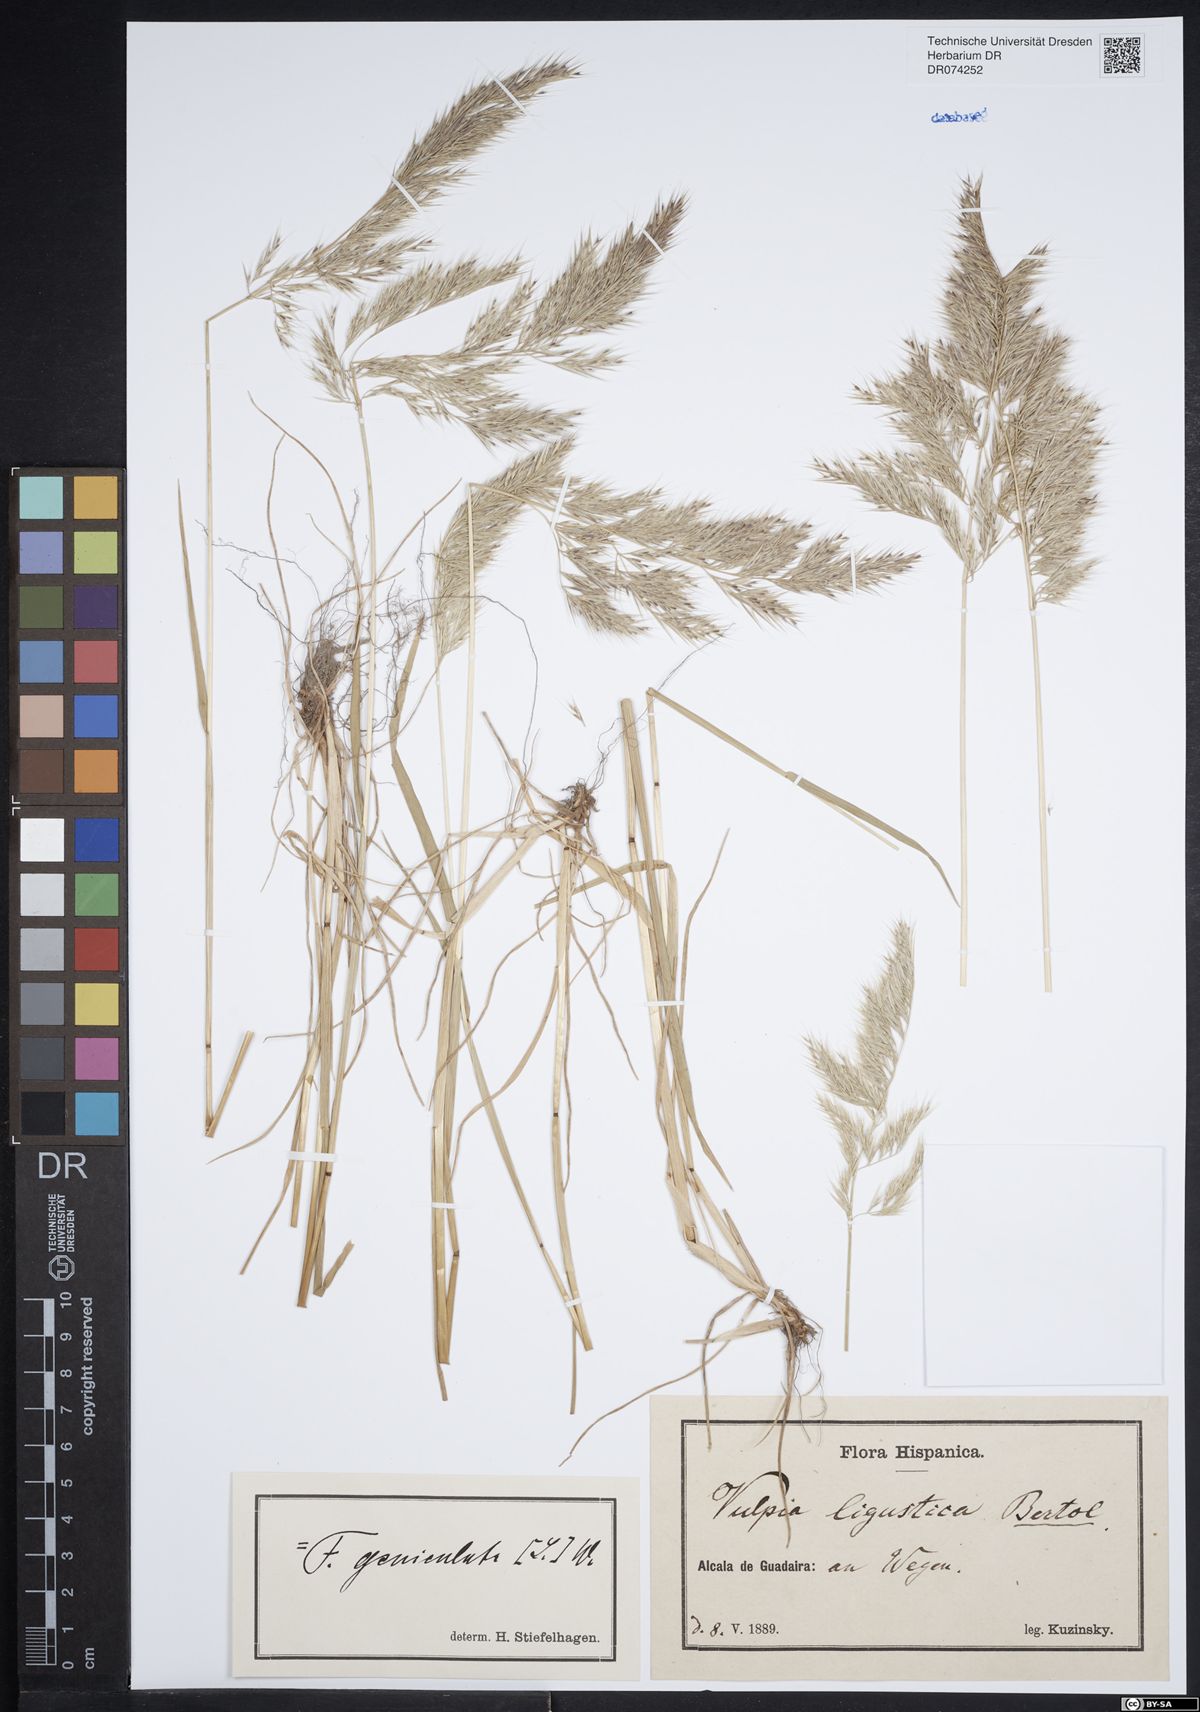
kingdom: Plantae
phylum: Tracheophyta
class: Liliopsida
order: Poales
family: Poaceae
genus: Festuca
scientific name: Festuca geniculata
